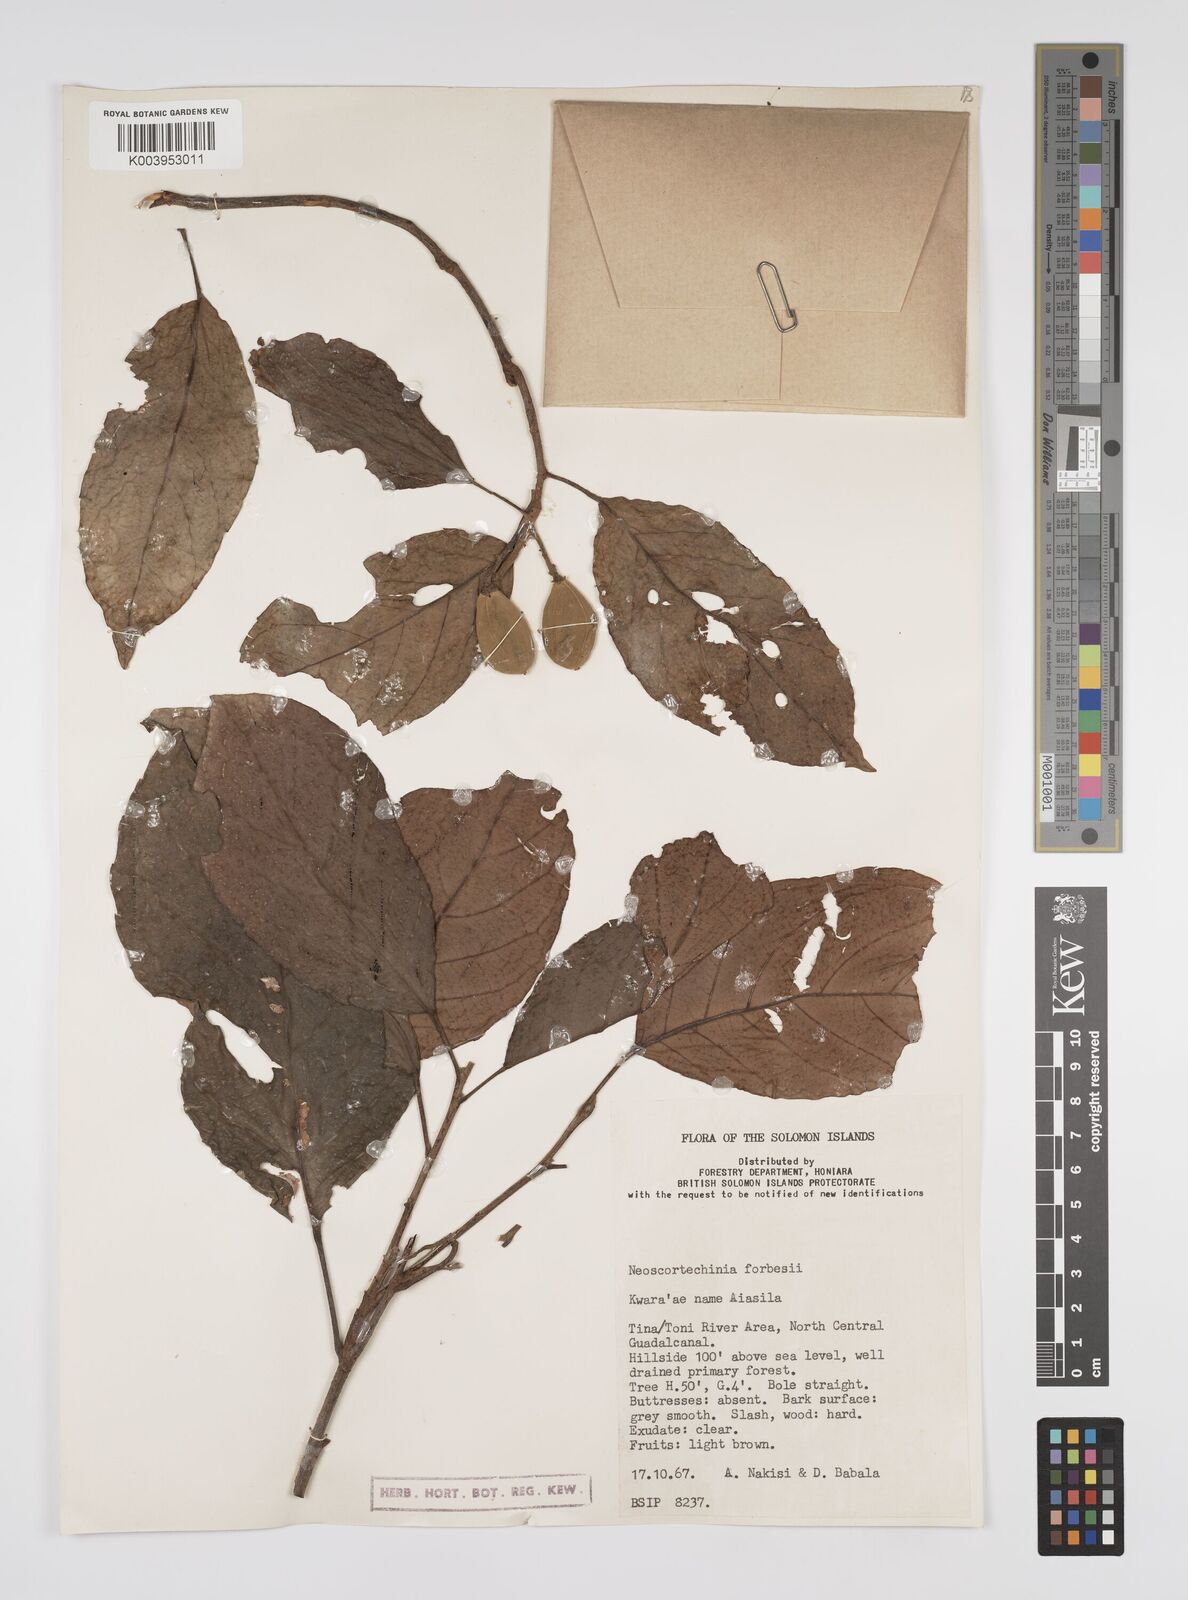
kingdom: Plantae
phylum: Tracheophyta
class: Magnoliopsida
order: Malpighiales
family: Euphorbiaceae
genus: Neoscortechinia
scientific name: Neoscortechinia forbesii
